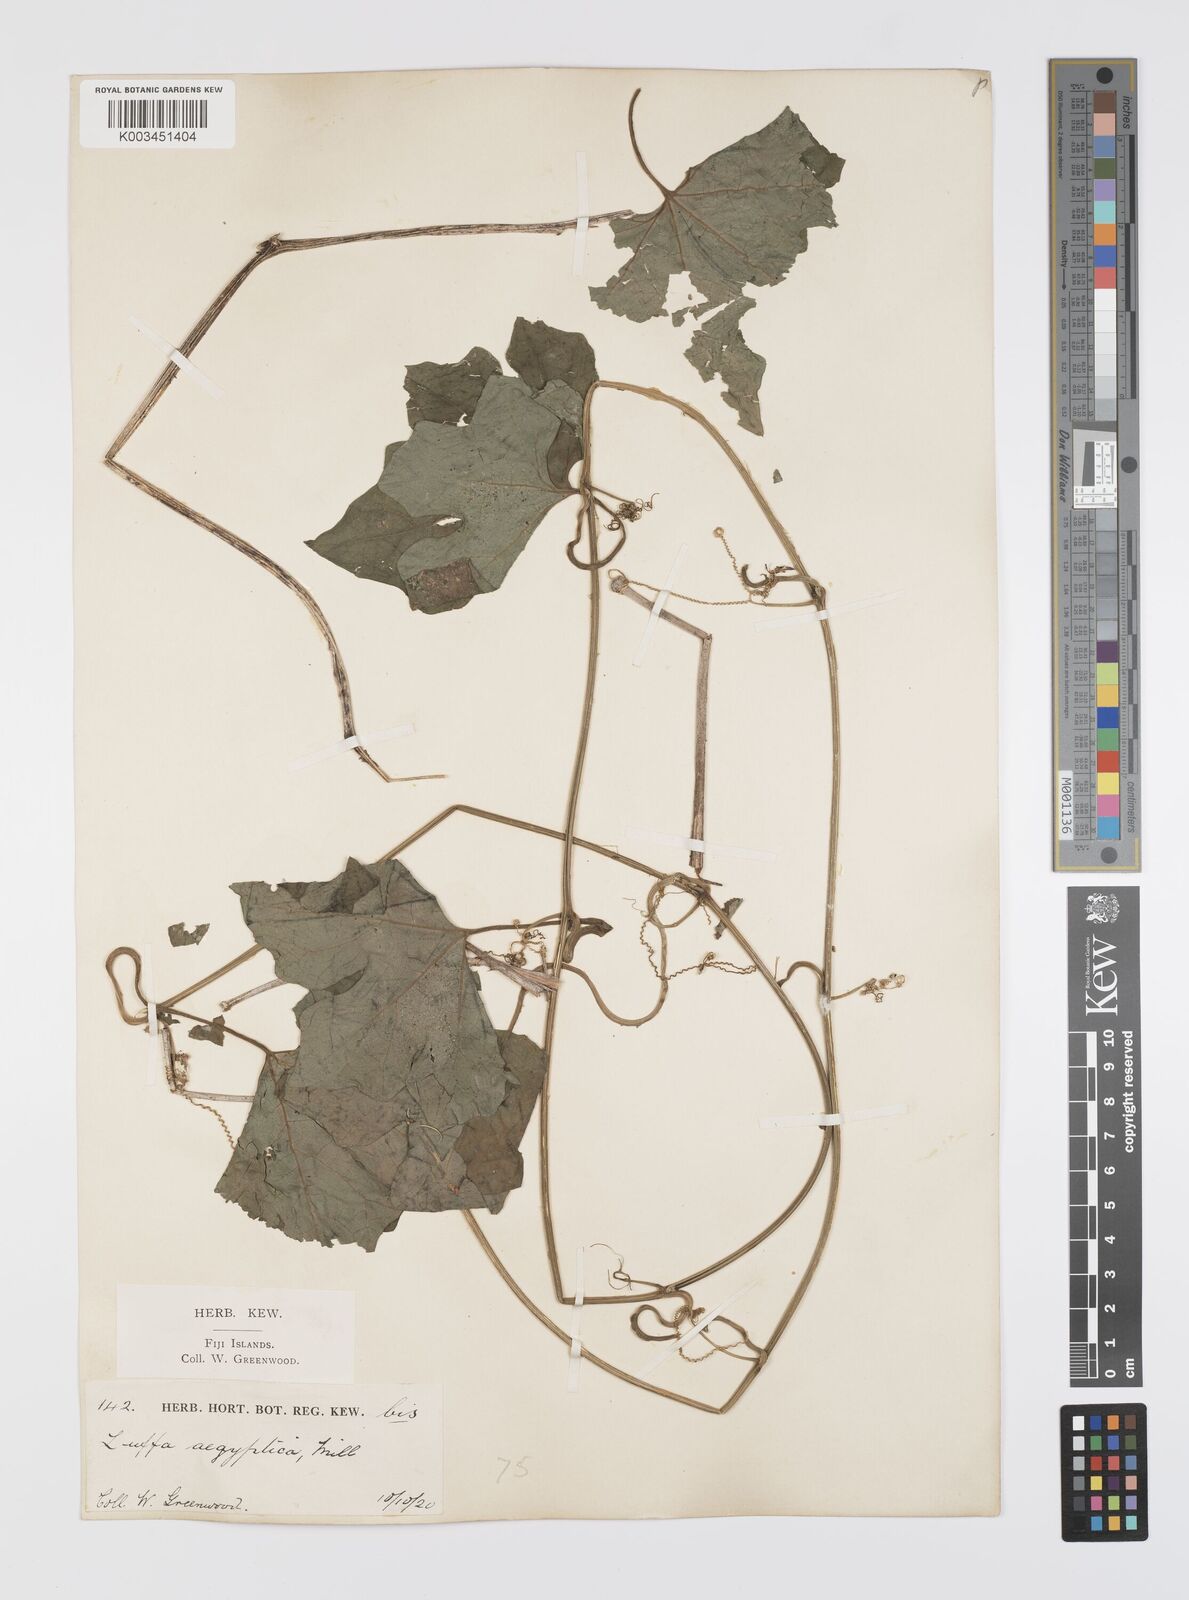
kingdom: Plantae
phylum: Tracheophyta
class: Magnoliopsida
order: Cucurbitales
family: Cucurbitaceae
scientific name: Cucurbitaceae
